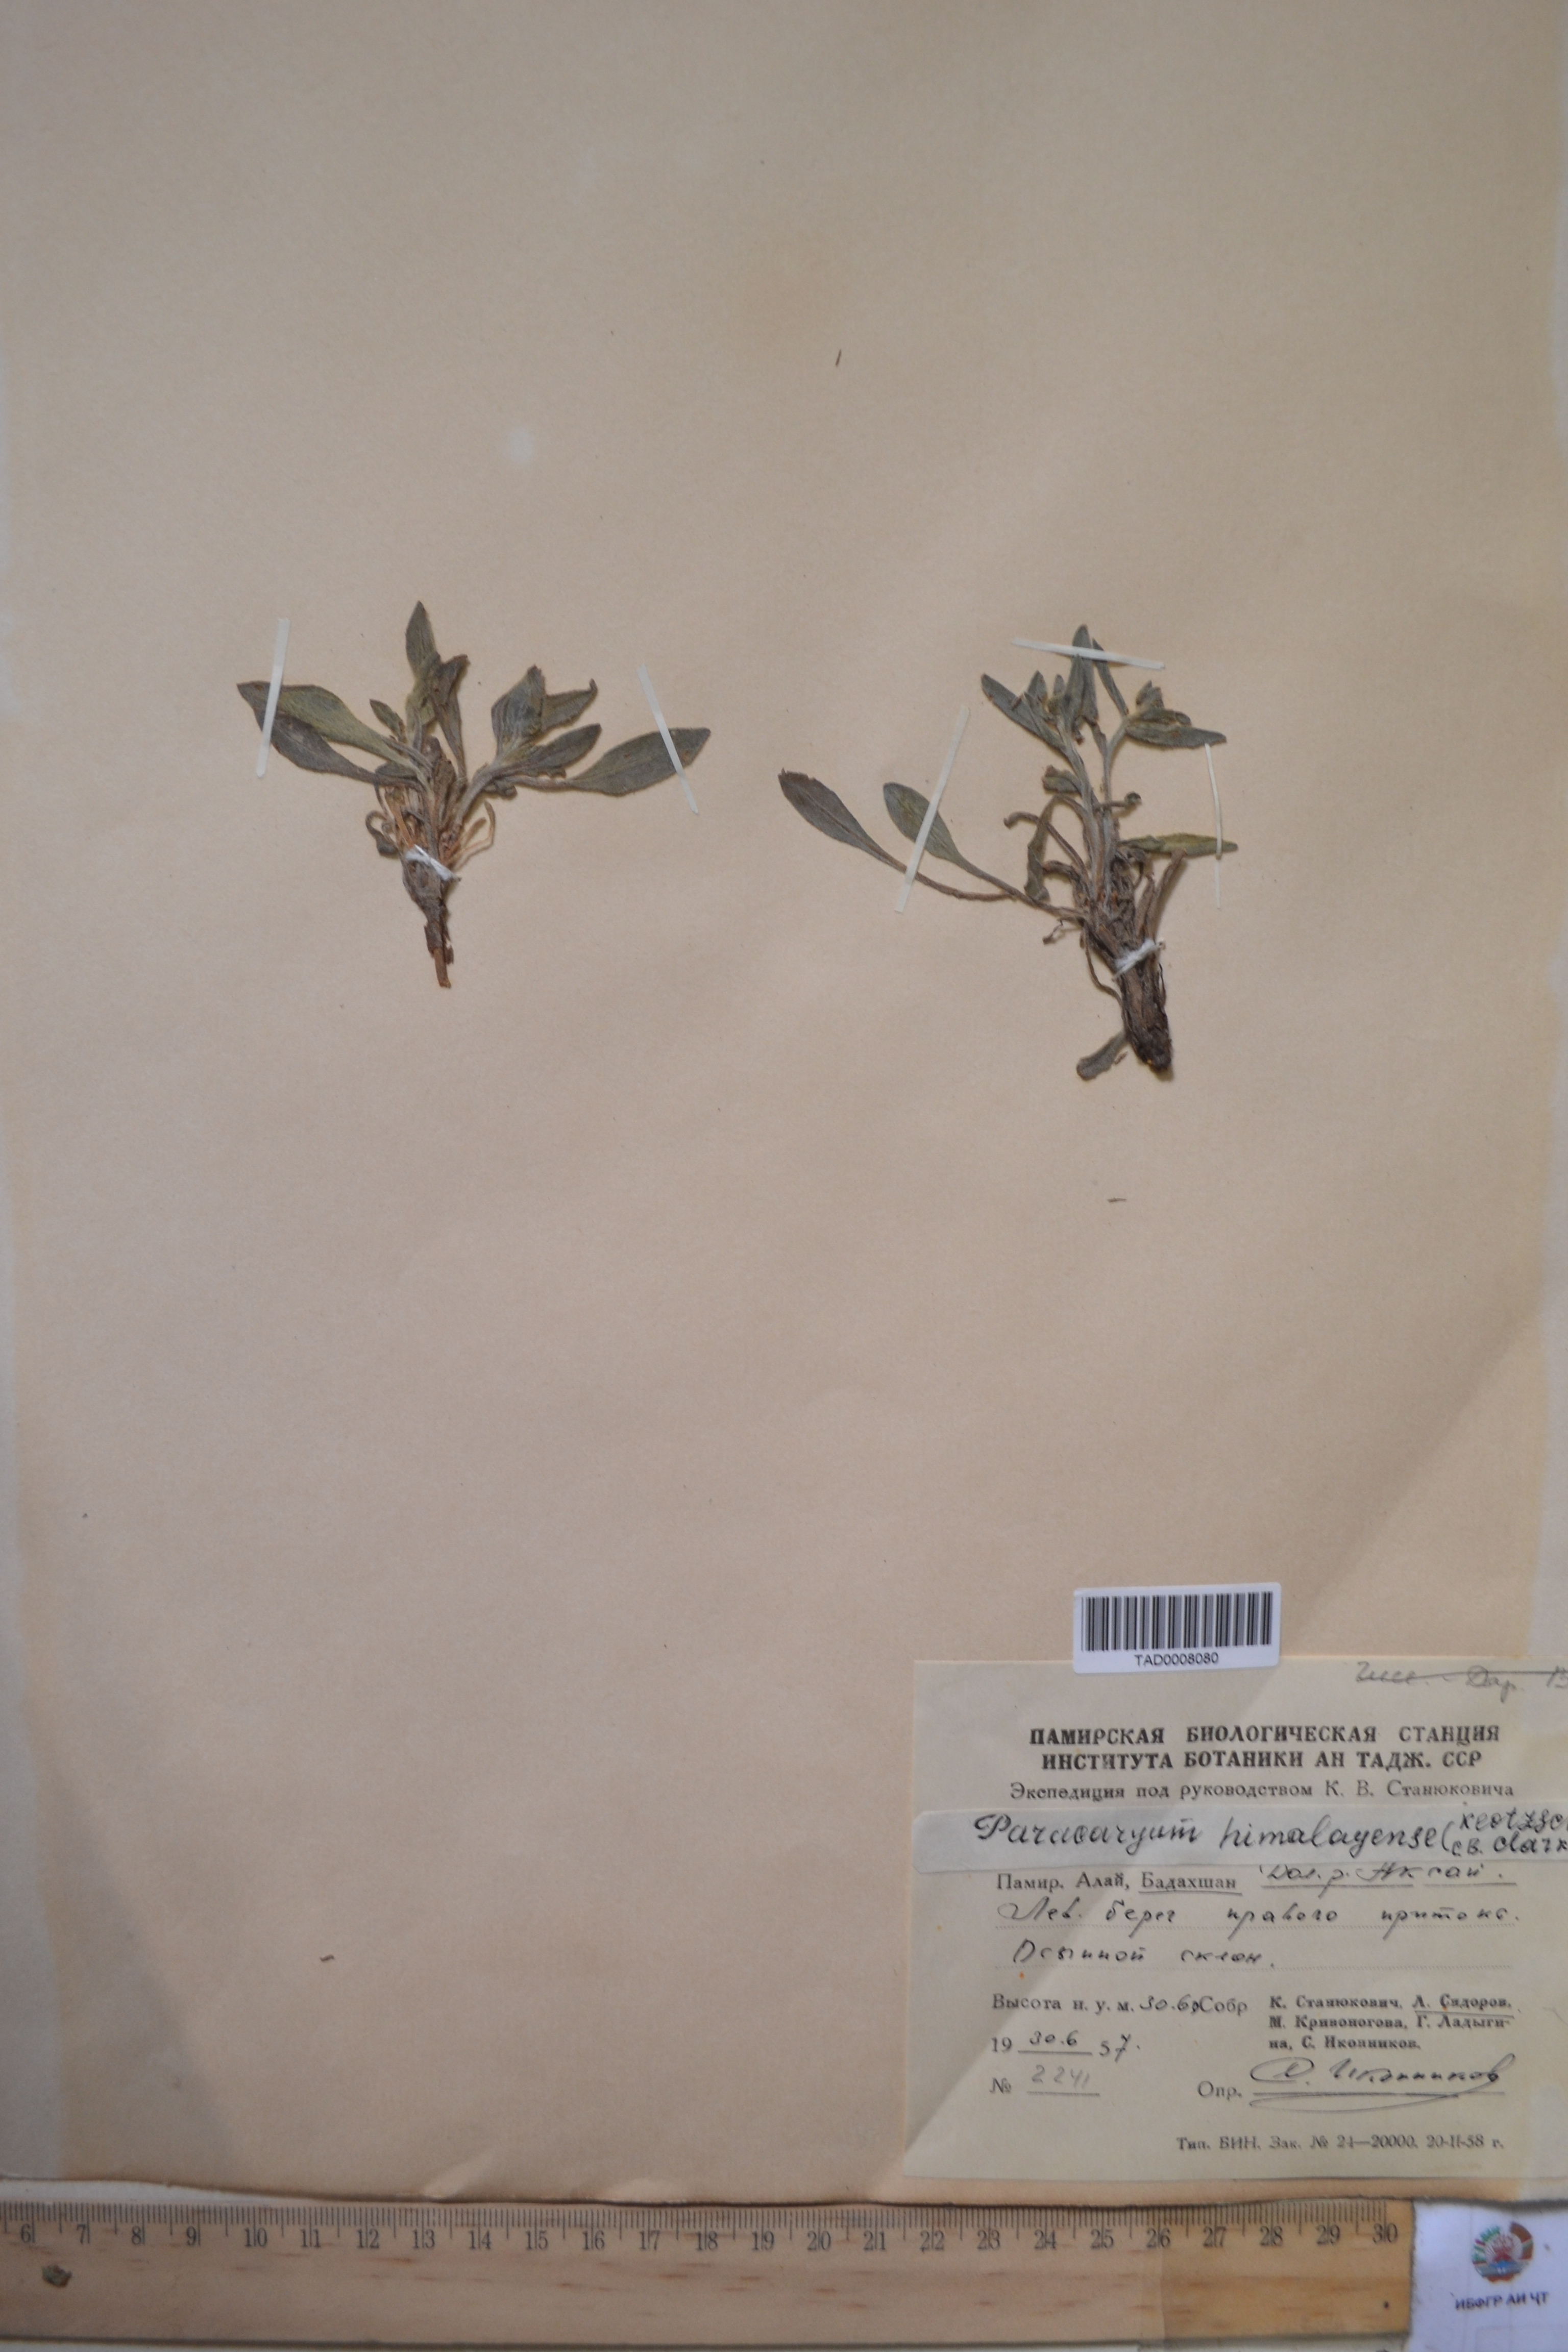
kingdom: Plantae
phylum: Tracheophyta
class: Magnoliopsida
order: Boraginales
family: Boraginaceae
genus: Paracaryum
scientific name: Paracaryum himalayense
